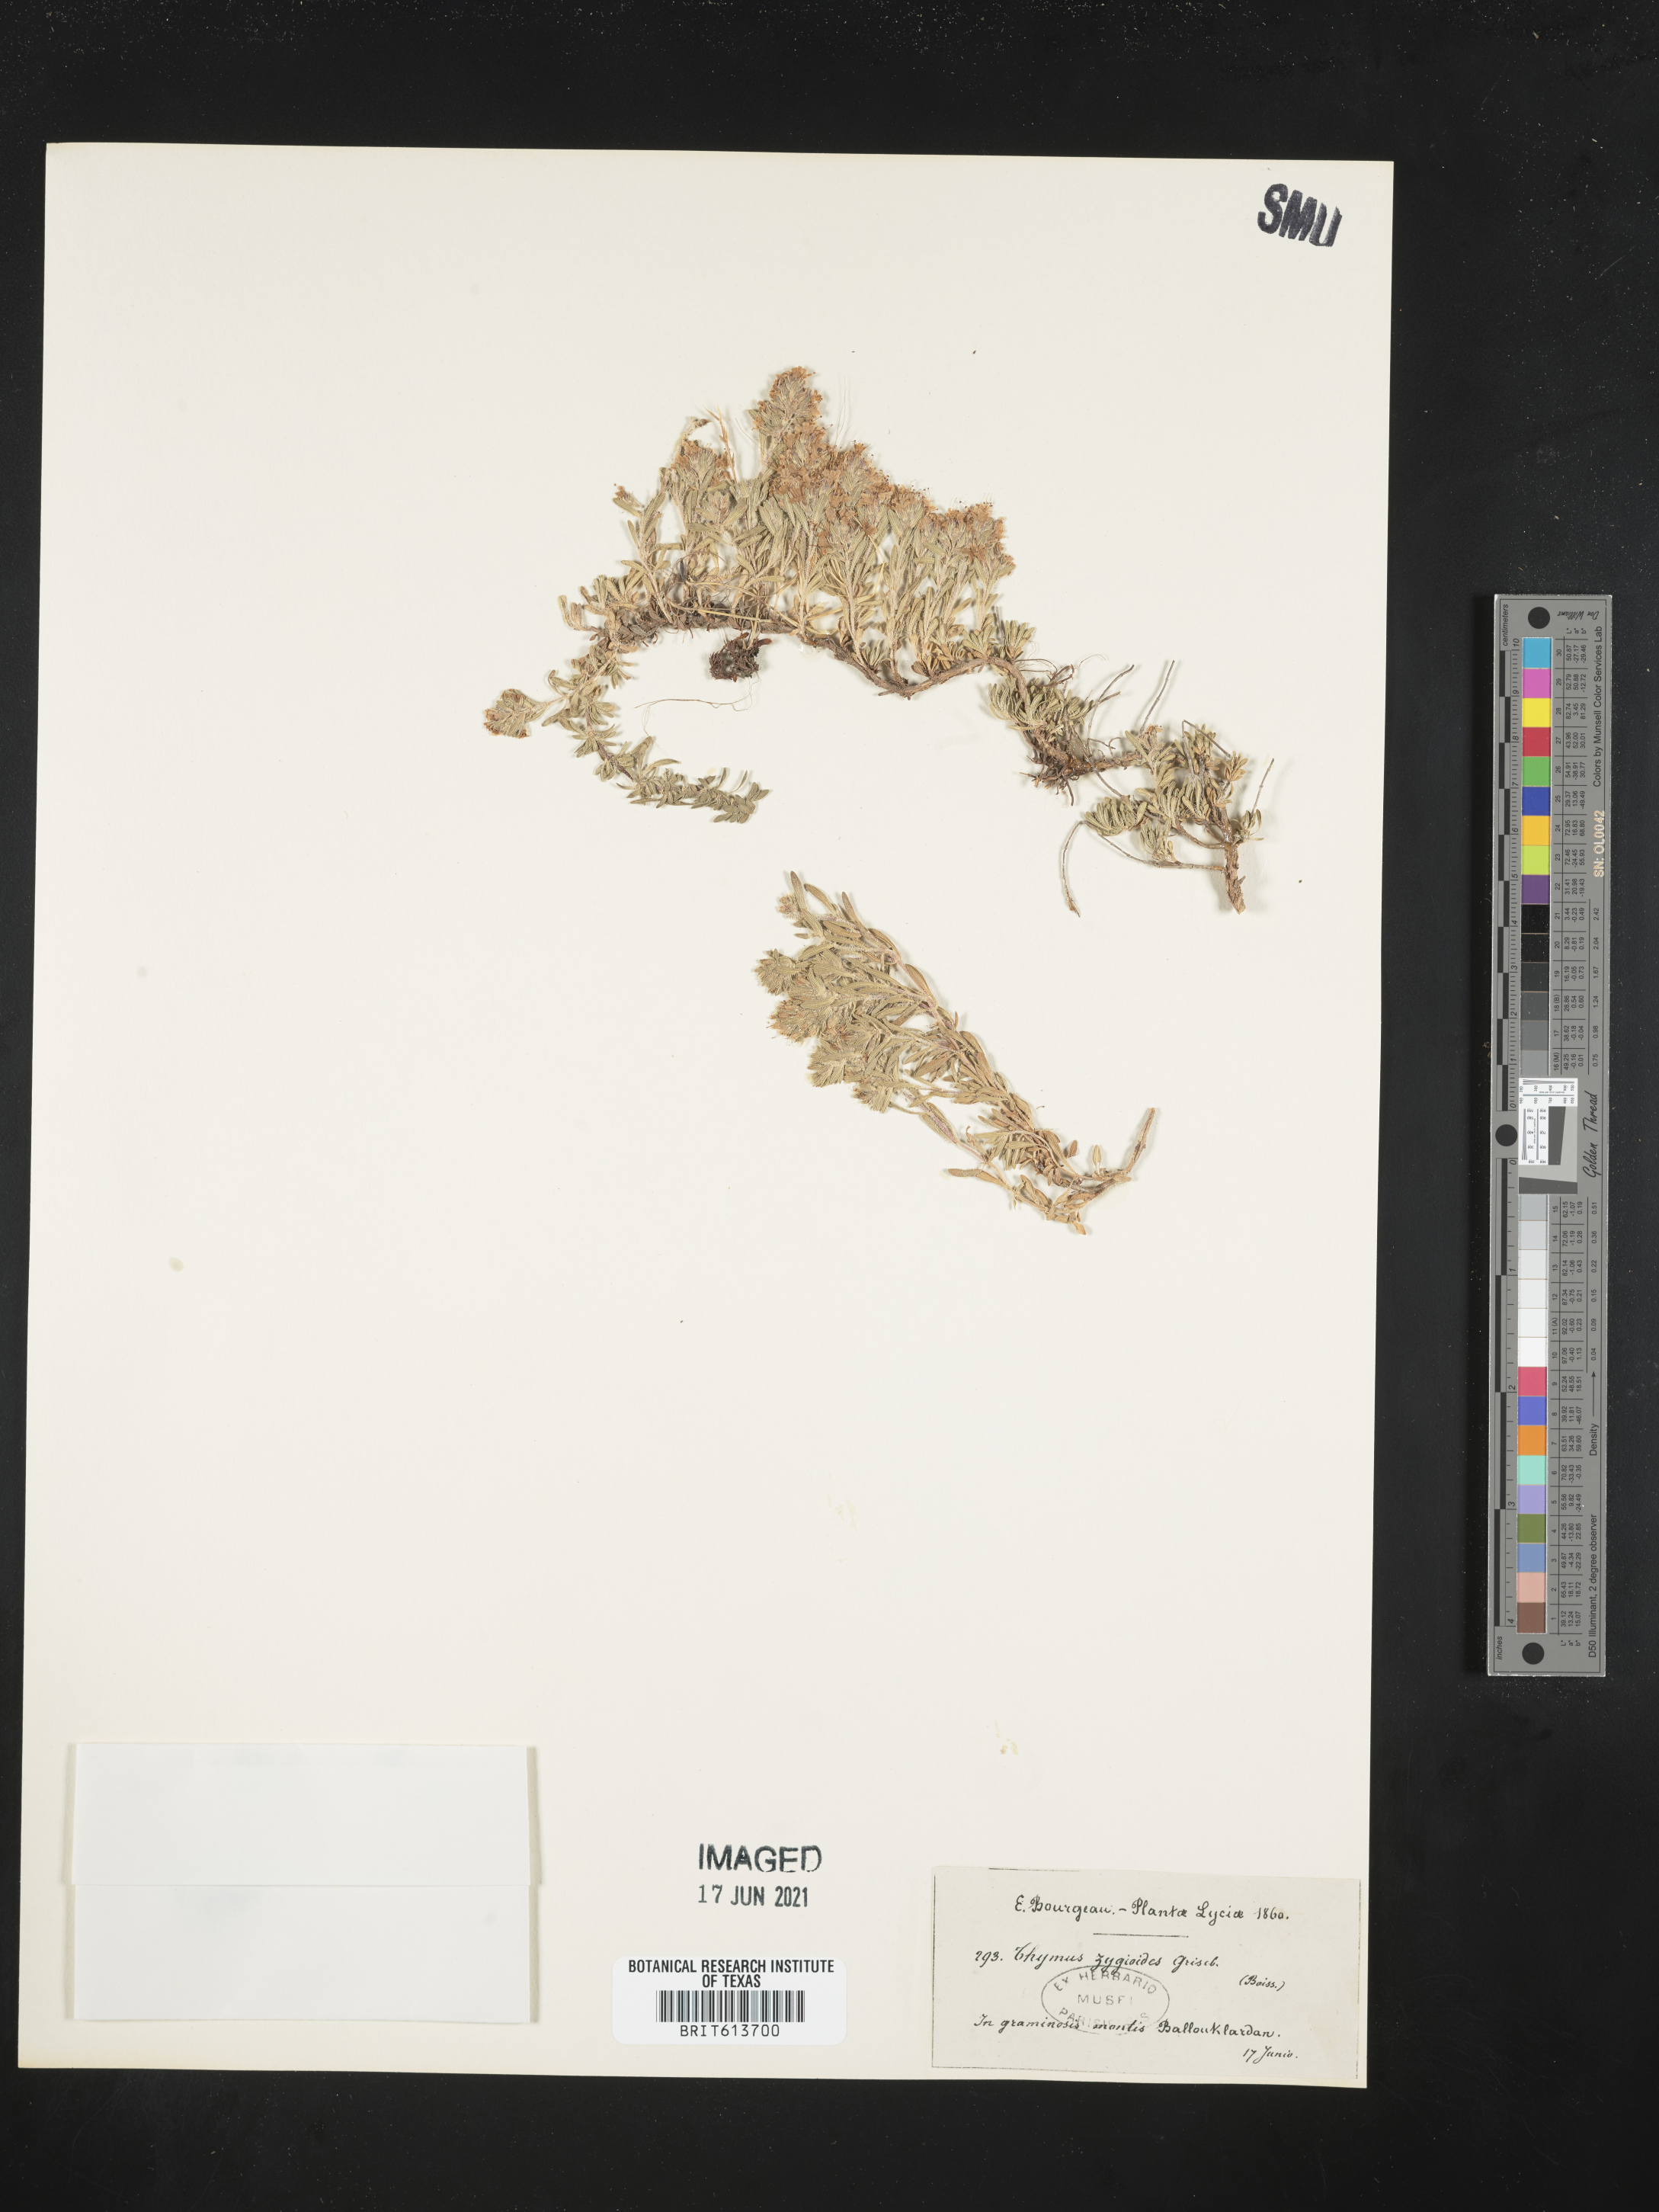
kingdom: Plantae
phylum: Tracheophyta
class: Magnoliopsida
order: Lamiales
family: Lamiaceae
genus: Thymus
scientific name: Thymus zygioides
